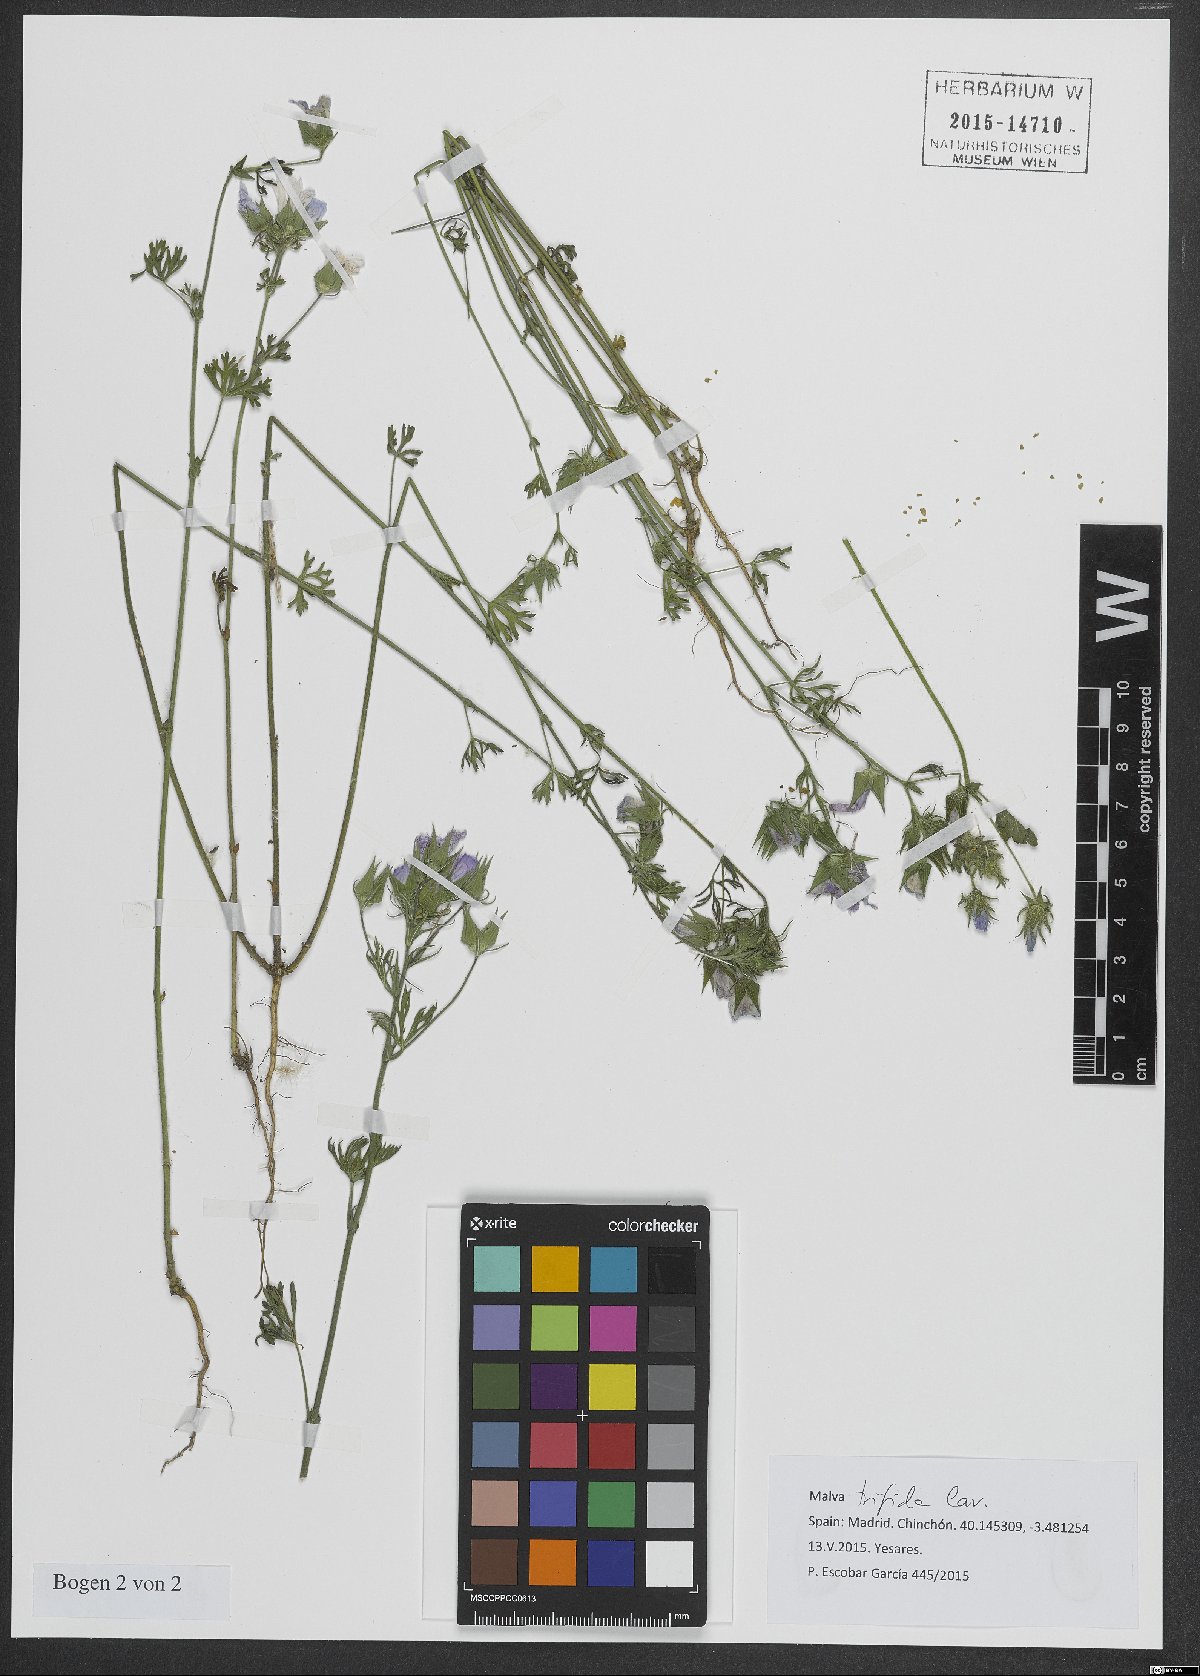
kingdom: Plantae
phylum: Tracheophyta
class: Magnoliopsida
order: Malvales
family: Malvaceae
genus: Malva
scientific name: Malva trifida
